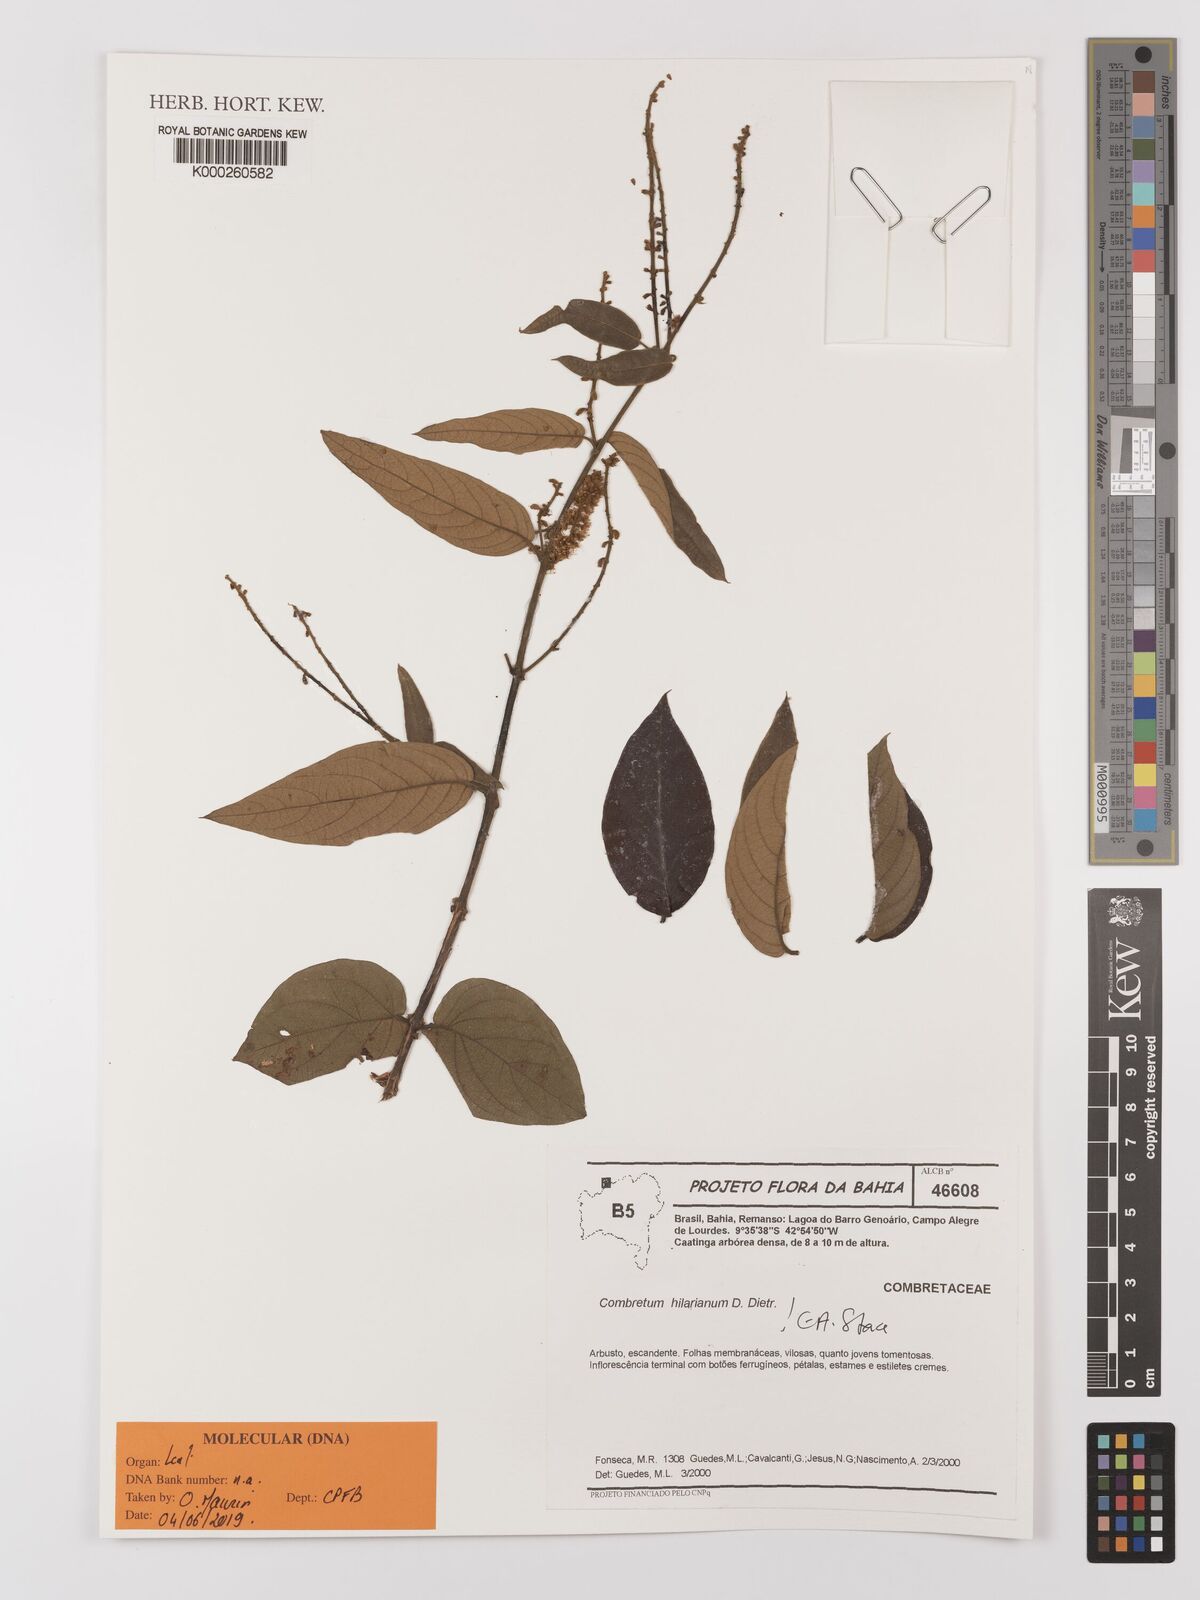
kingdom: Plantae
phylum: Tracheophyta
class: Magnoliopsida
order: Myrtales
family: Combretaceae
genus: Combretum
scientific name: Combretum hilarianum
